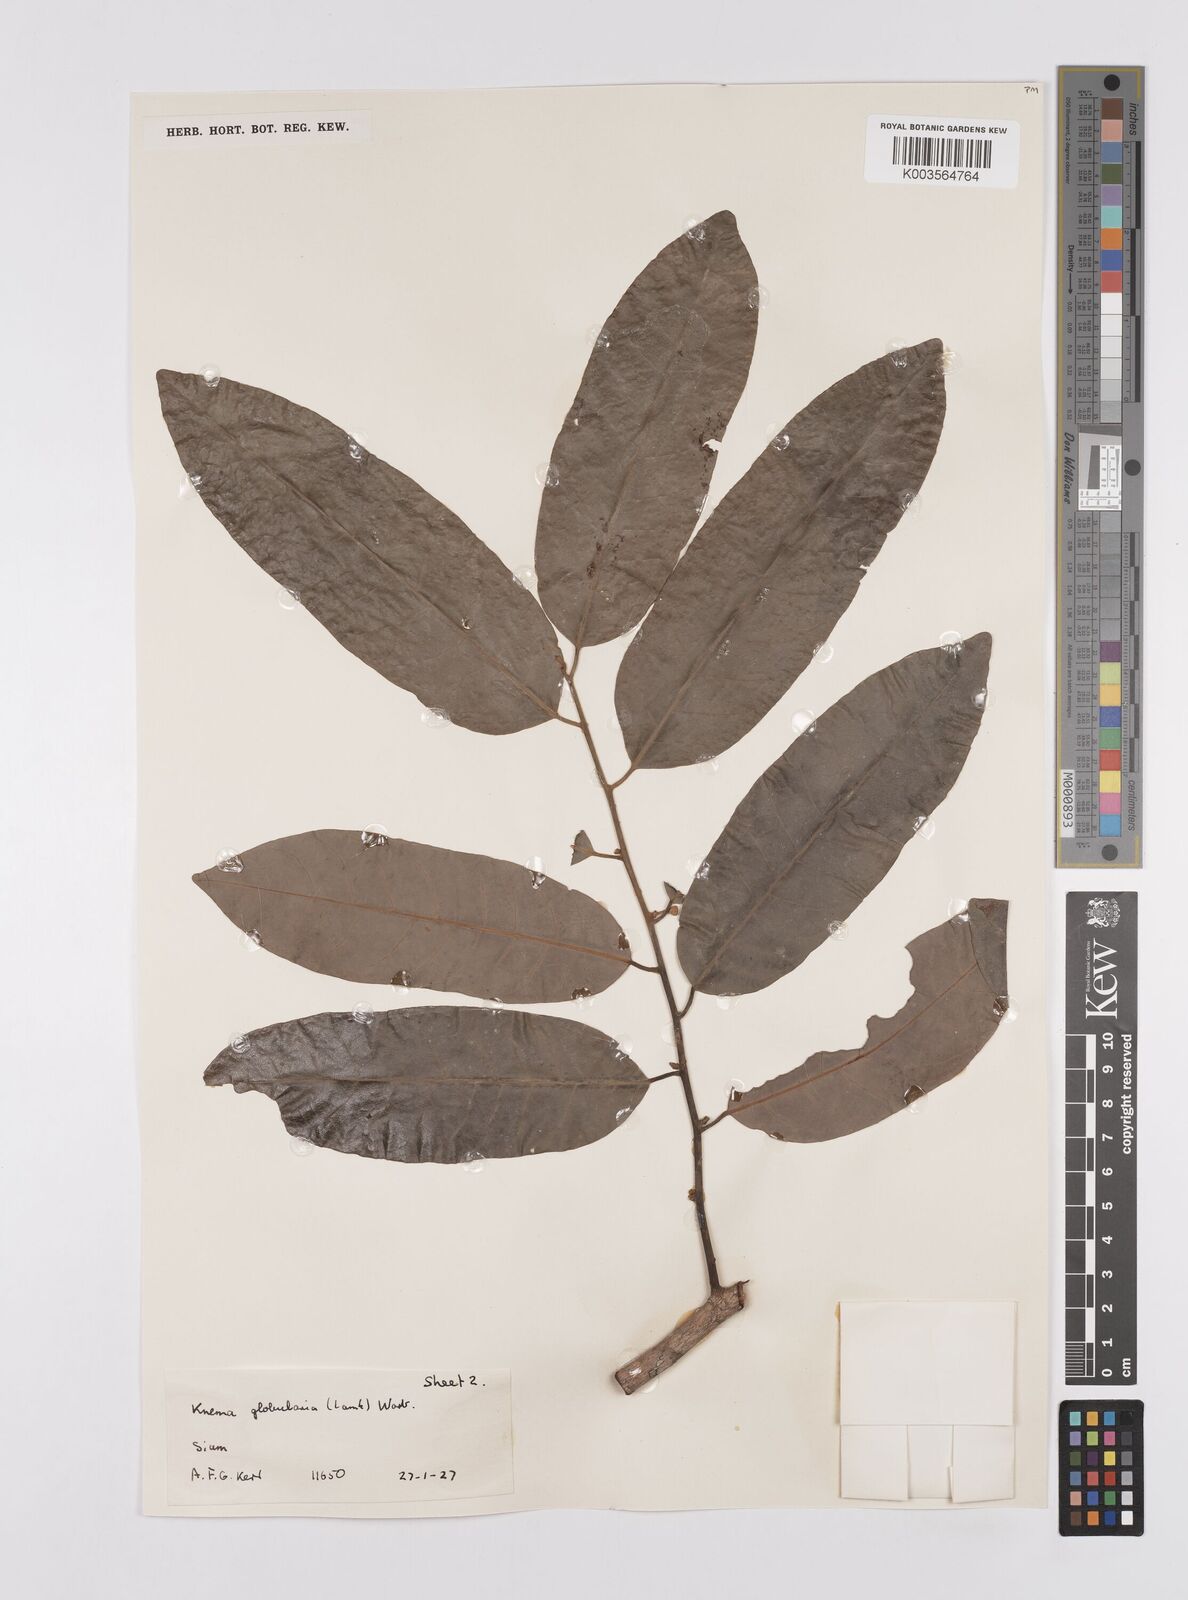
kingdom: Plantae
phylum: Tracheophyta
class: Magnoliopsida
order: Magnoliales
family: Myristicaceae
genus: Knema
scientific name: Knema globularia
